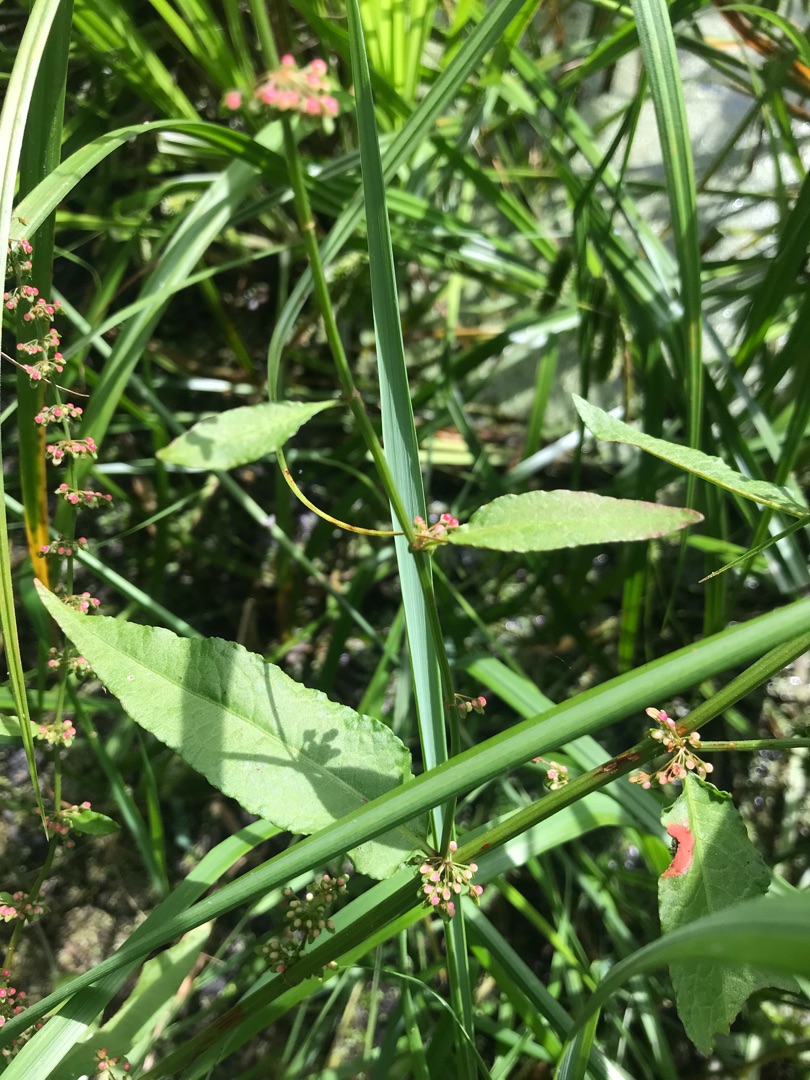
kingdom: Plantae
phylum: Tracheophyta
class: Magnoliopsida
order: Caryophyllales
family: Polygonaceae
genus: Rumex
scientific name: Rumex sanguineus
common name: Skov-skræppe
